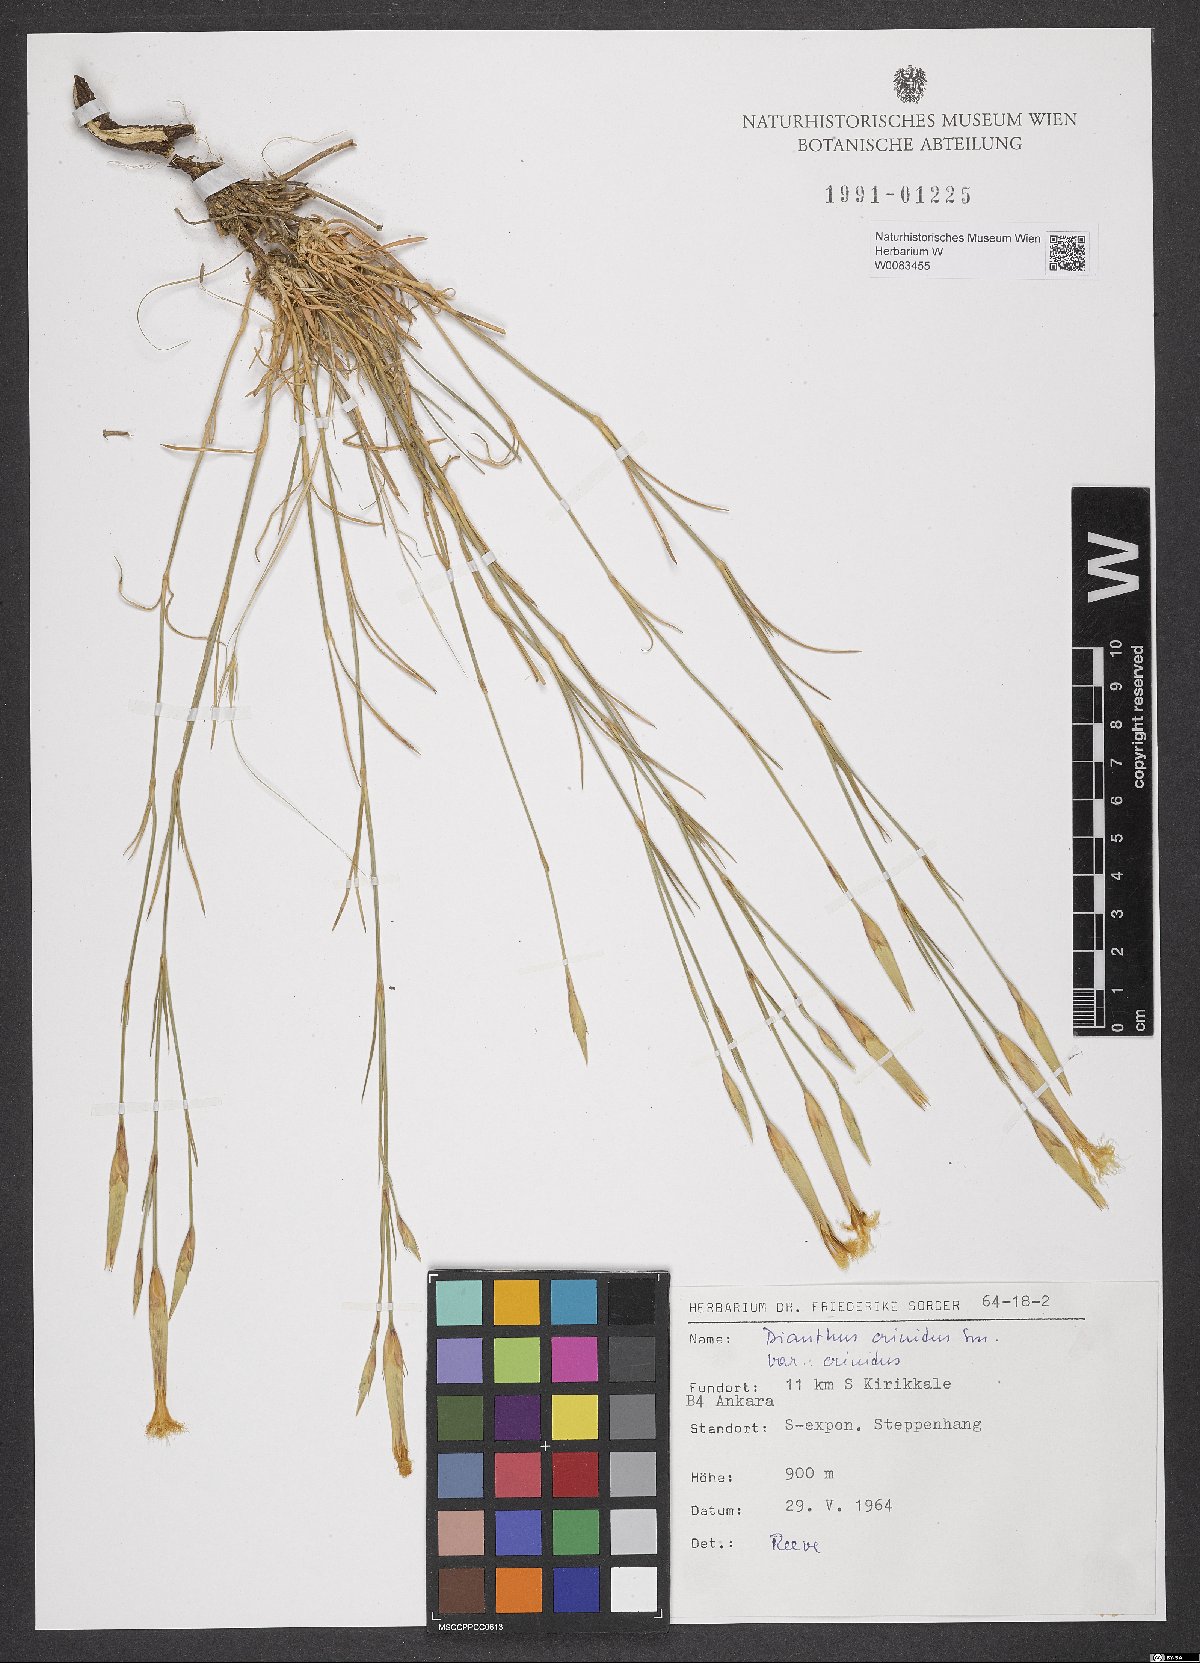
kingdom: Plantae
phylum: Tracheophyta
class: Magnoliopsida
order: Caryophyllales
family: Caryophyllaceae
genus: Dianthus
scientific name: Dianthus crinitus
